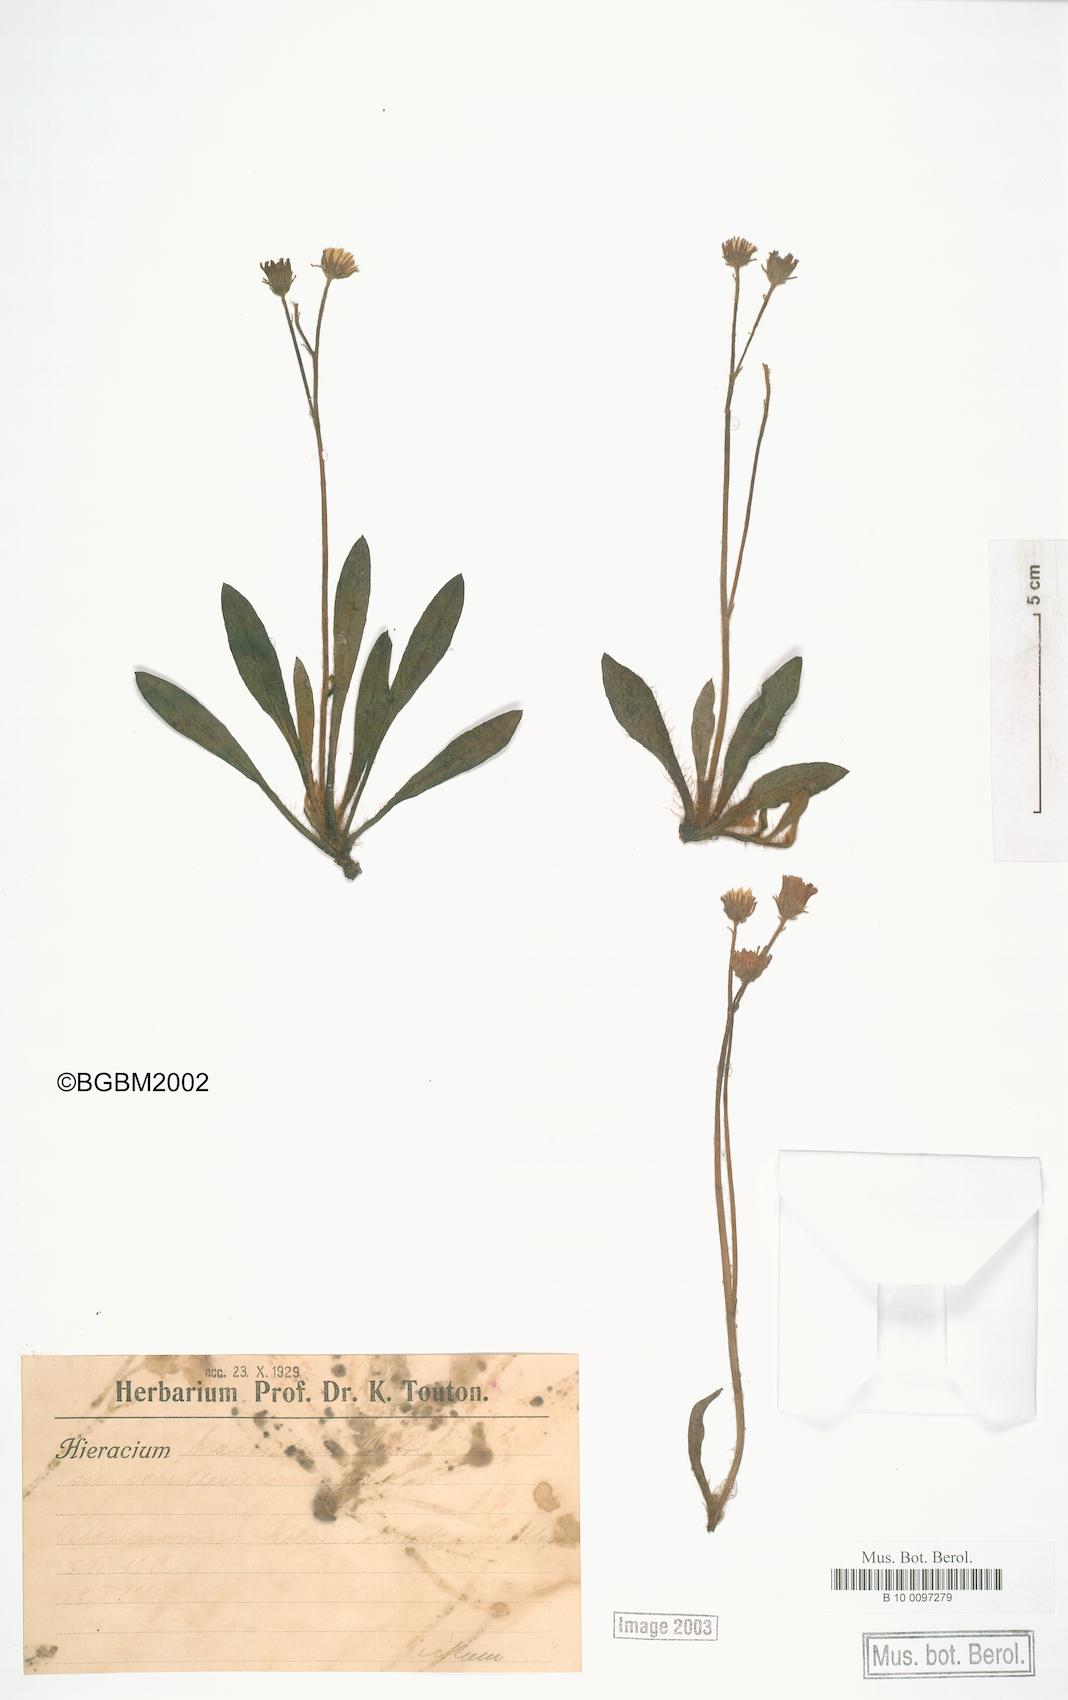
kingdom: Plantae
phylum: Tracheophyta
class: Magnoliopsida
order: Asterales
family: Asteraceae
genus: Pilosella
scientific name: Pilosella acutifolia
